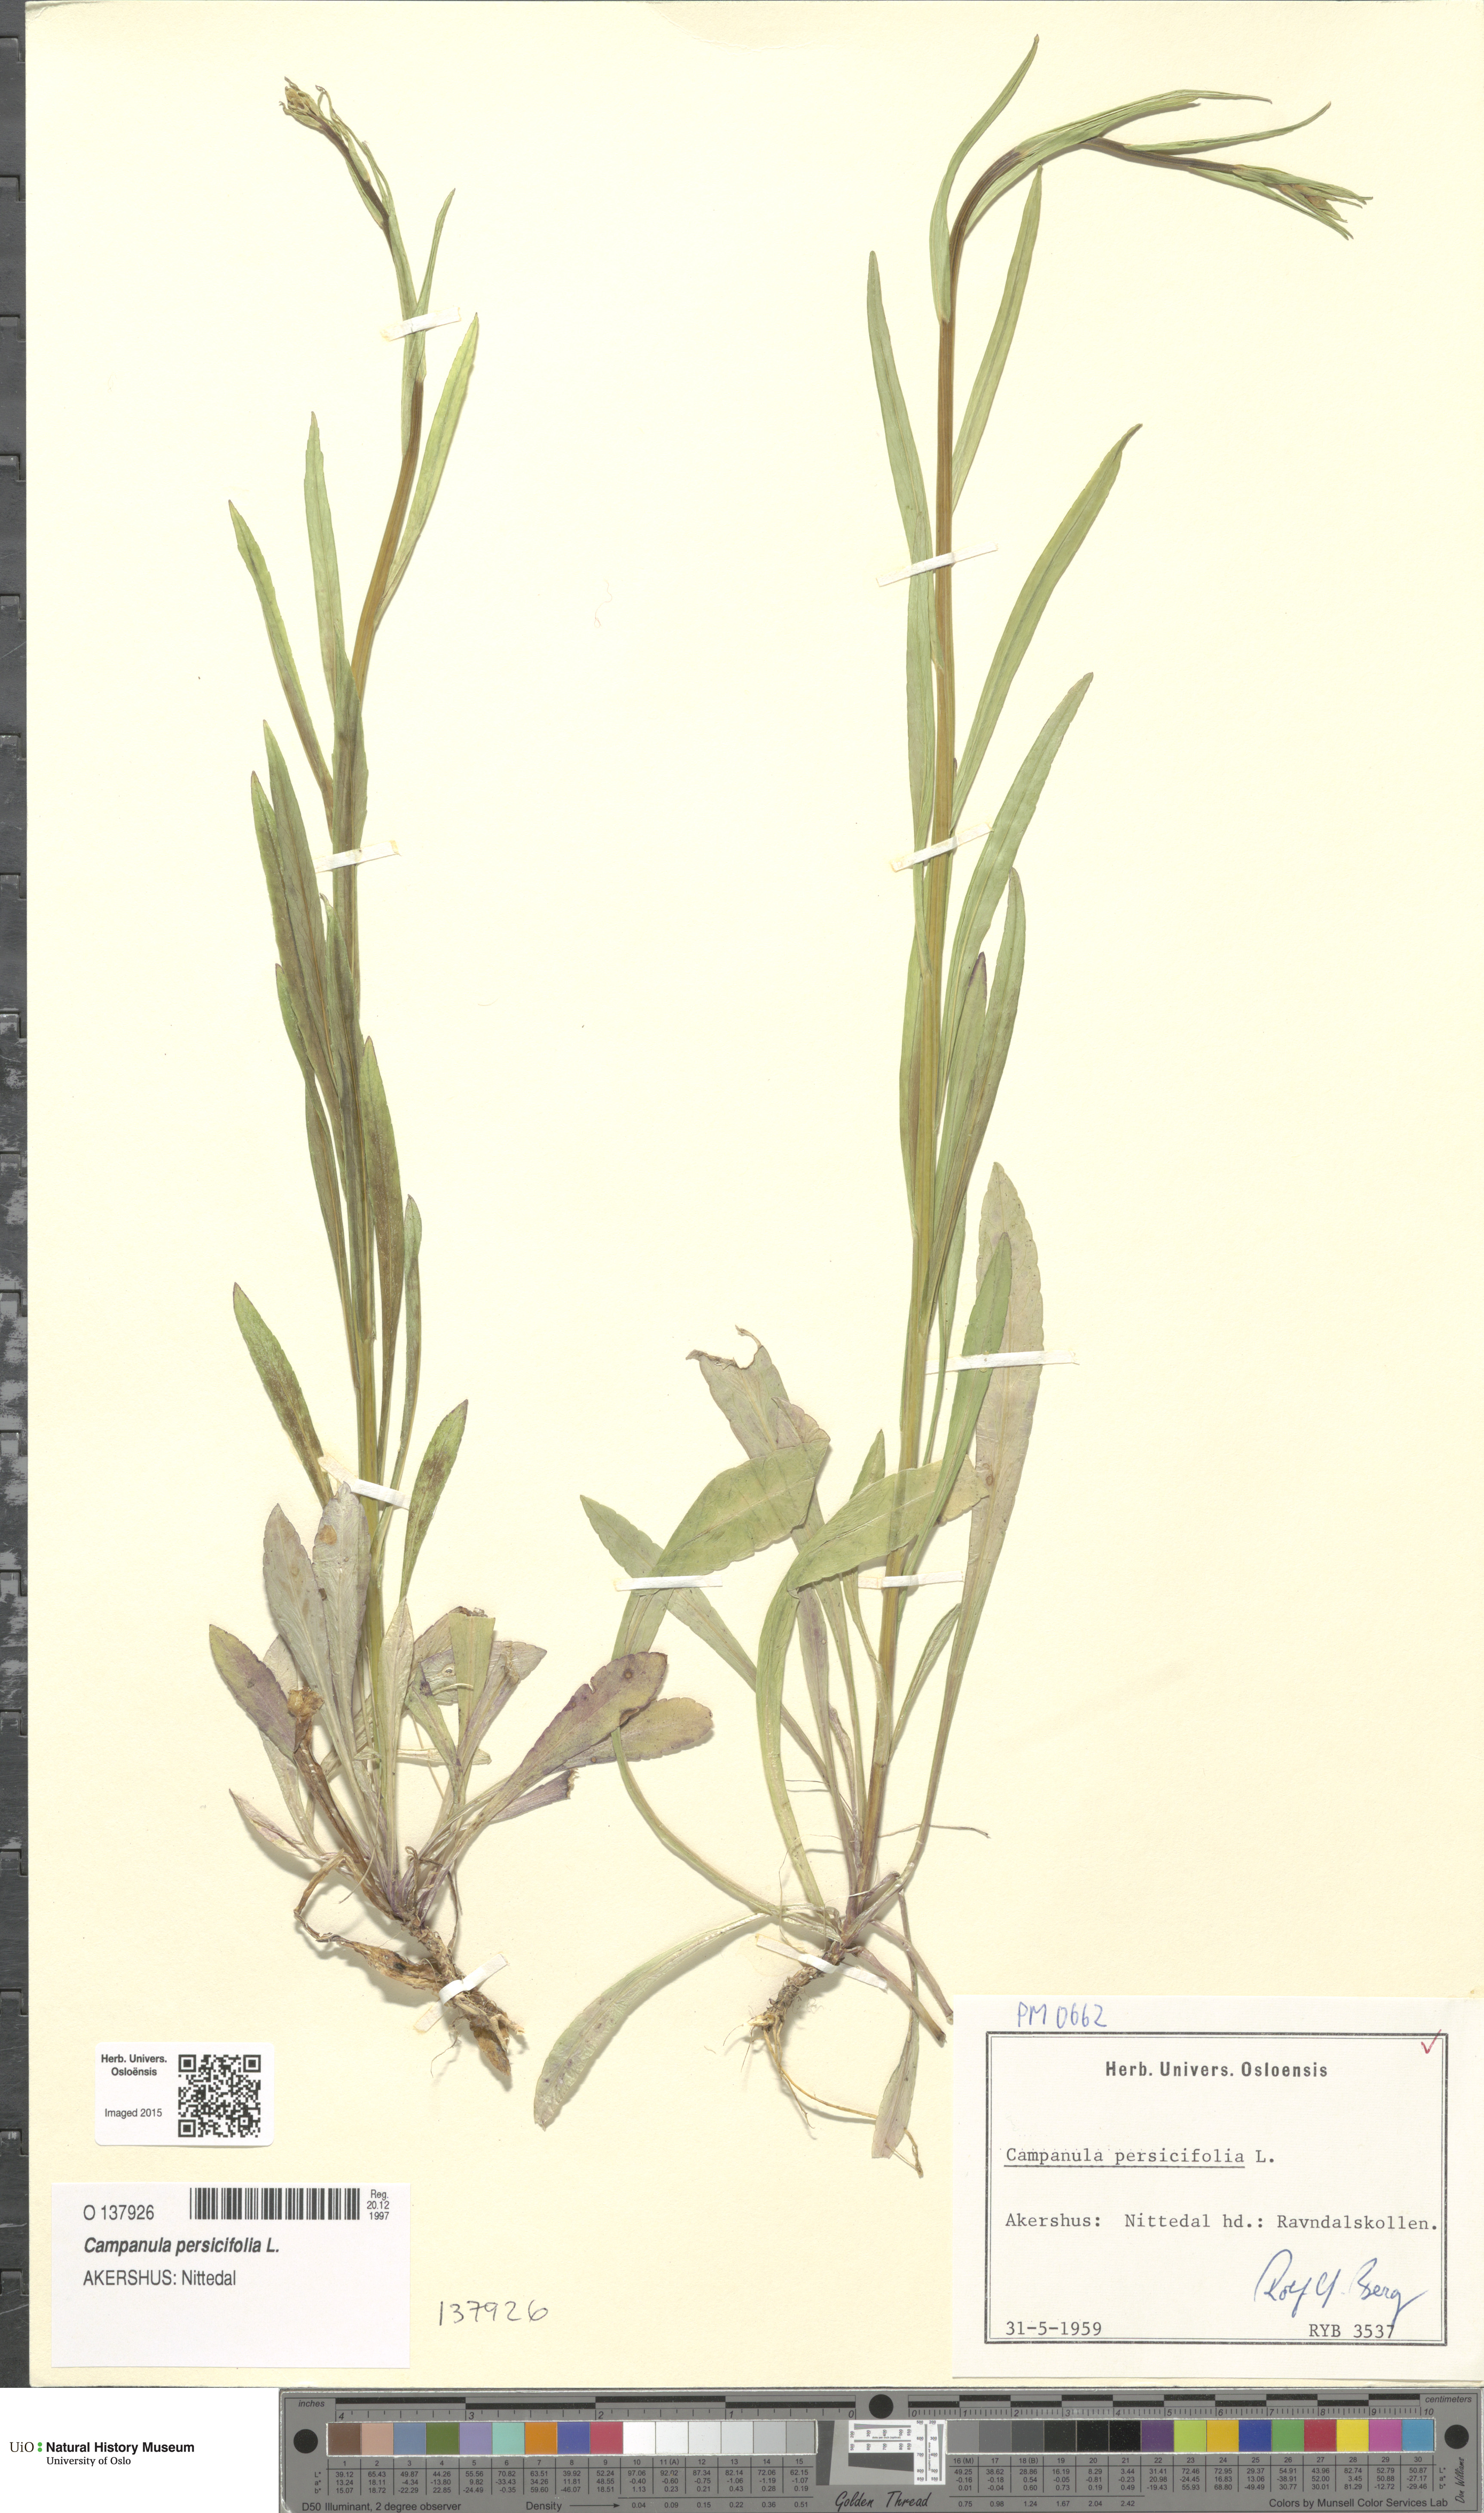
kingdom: Plantae
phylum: Tracheophyta
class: Magnoliopsida
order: Asterales
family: Campanulaceae
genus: Campanula
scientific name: Campanula persicifolia
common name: Peach-leaved bellflower
